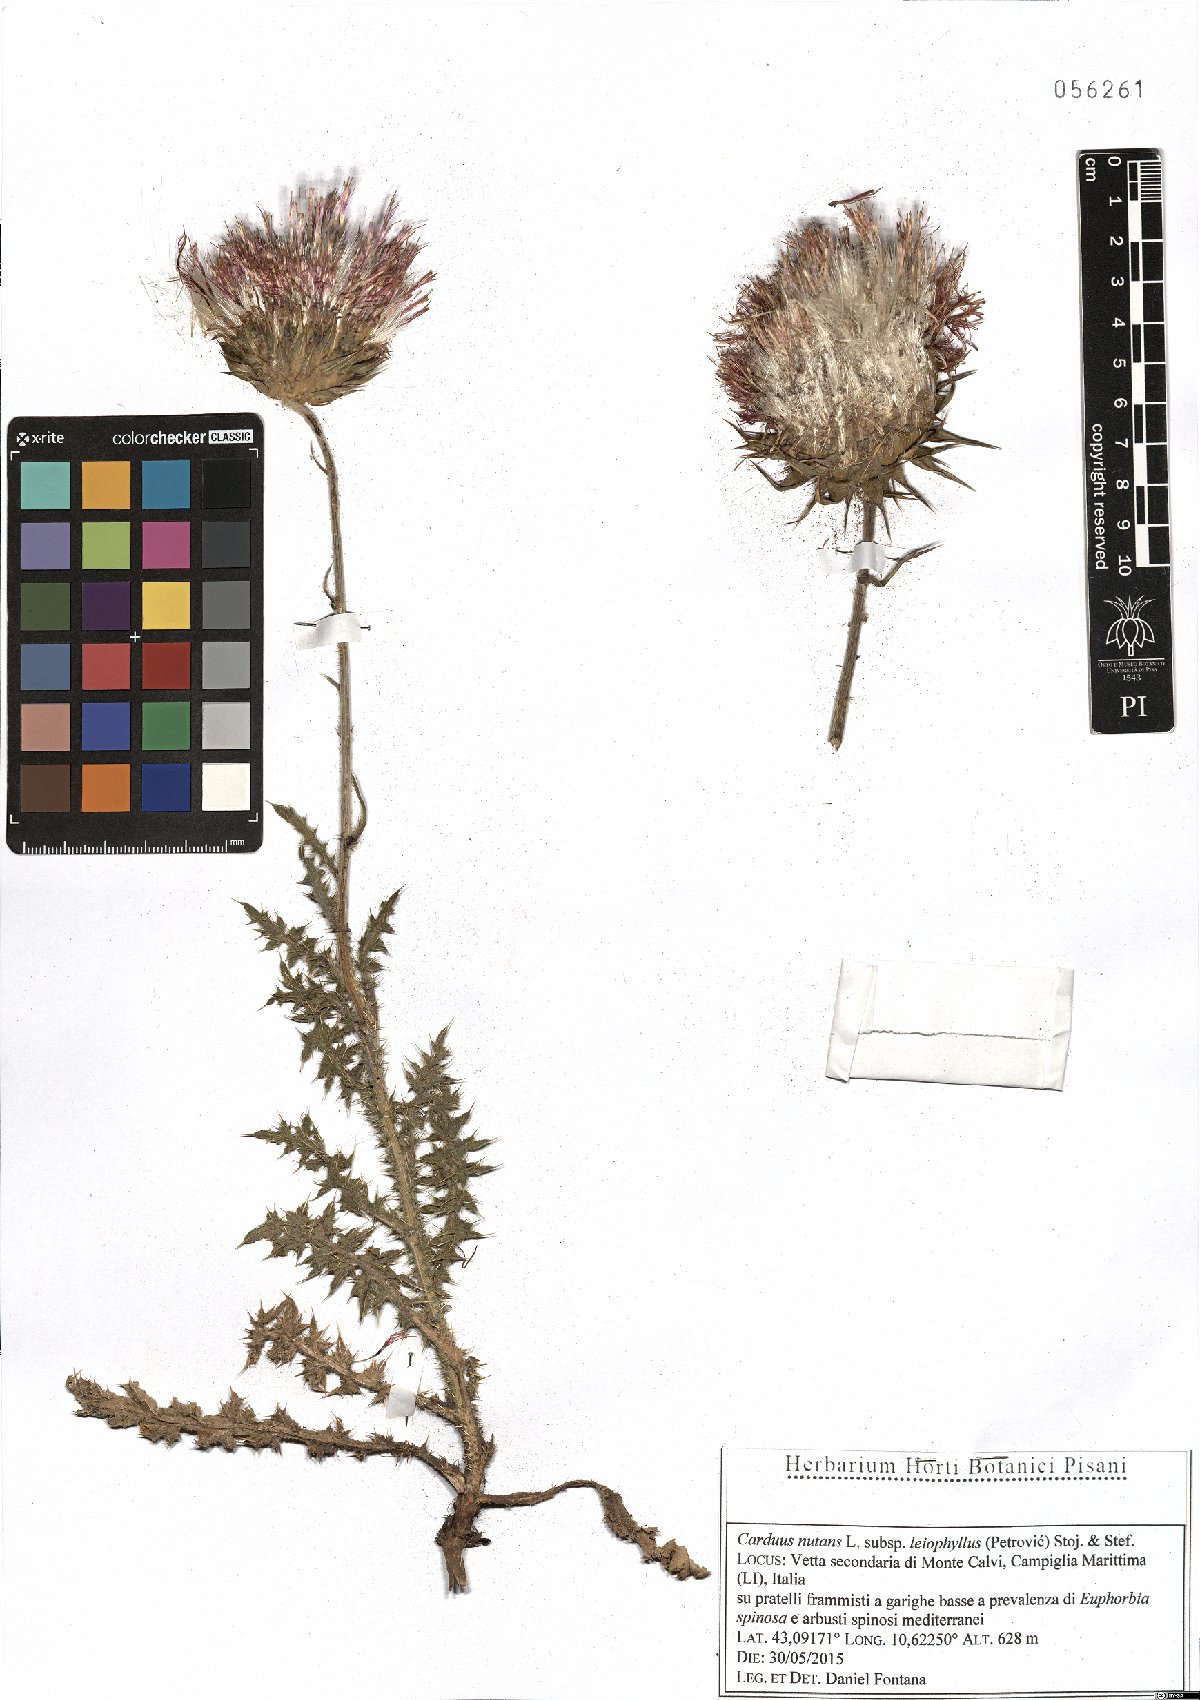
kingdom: Plantae
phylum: Tracheophyta
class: Magnoliopsida
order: Asterales
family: Asteraceae
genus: Carduus
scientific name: Carduus nutans
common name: Musk thistle
